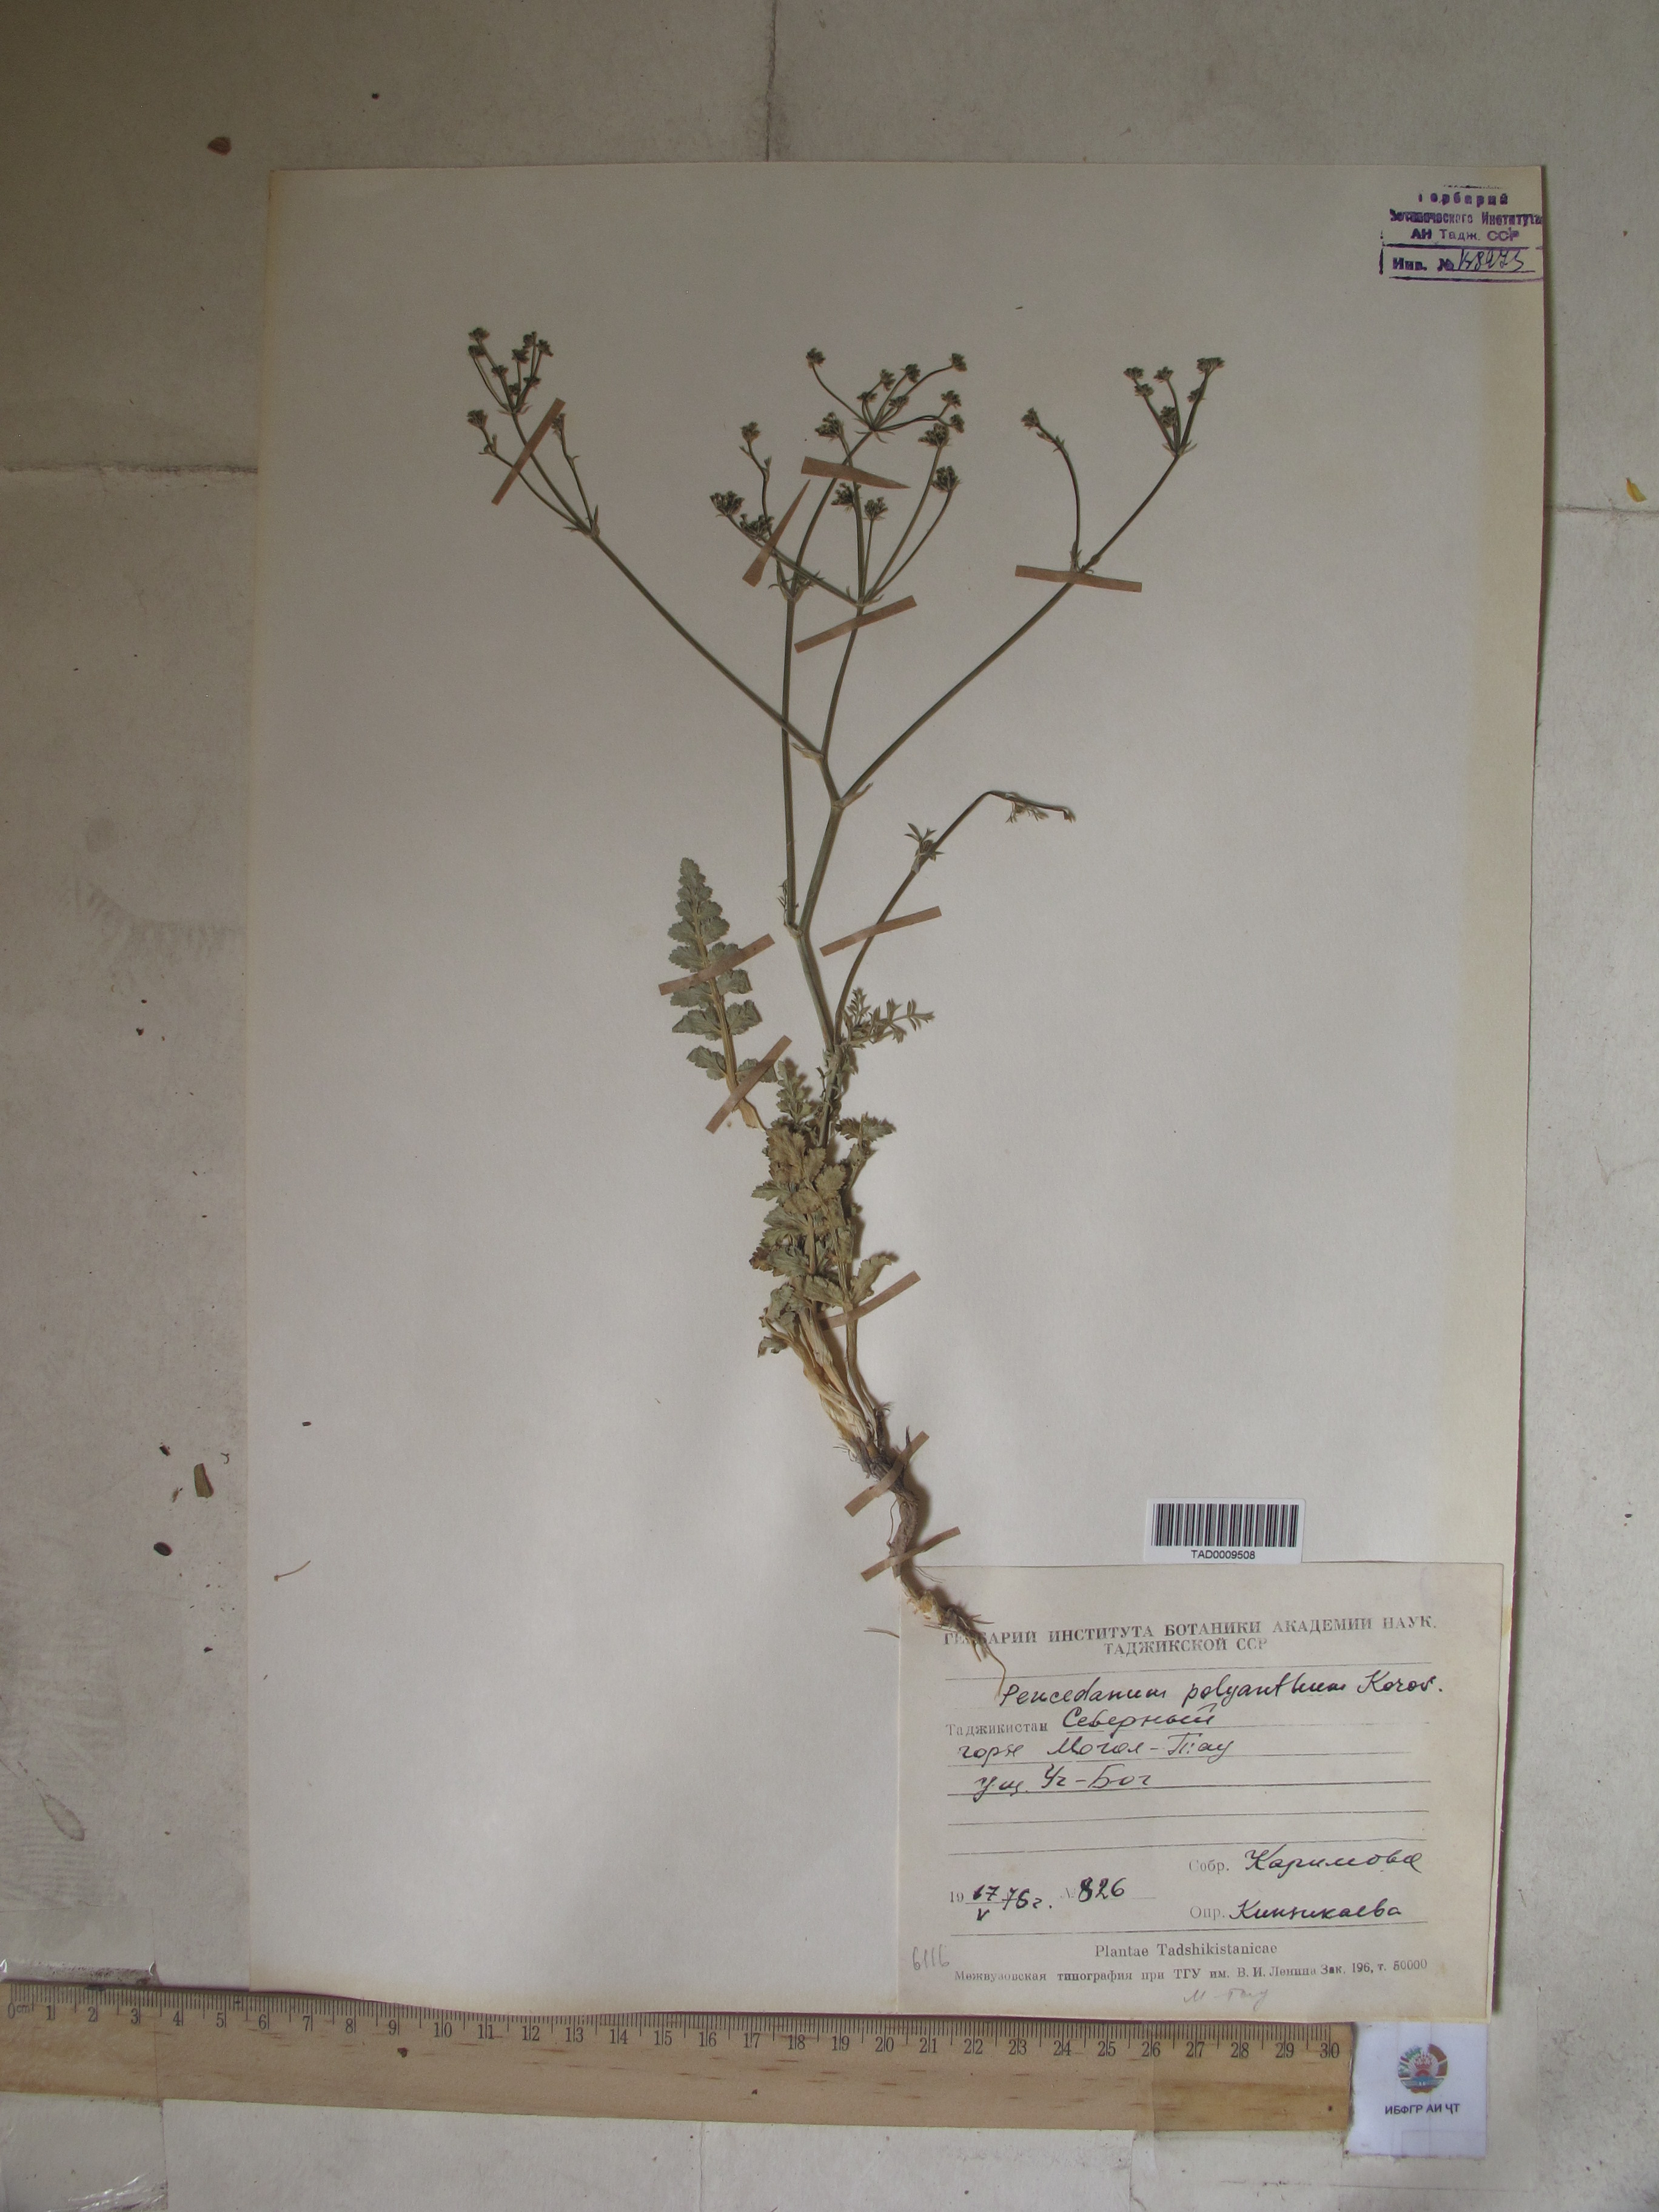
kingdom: Plantae
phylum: Tracheophyta
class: Magnoliopsida
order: Apiales
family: Apiaceae
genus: Fergania
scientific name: Fergania polyantha
